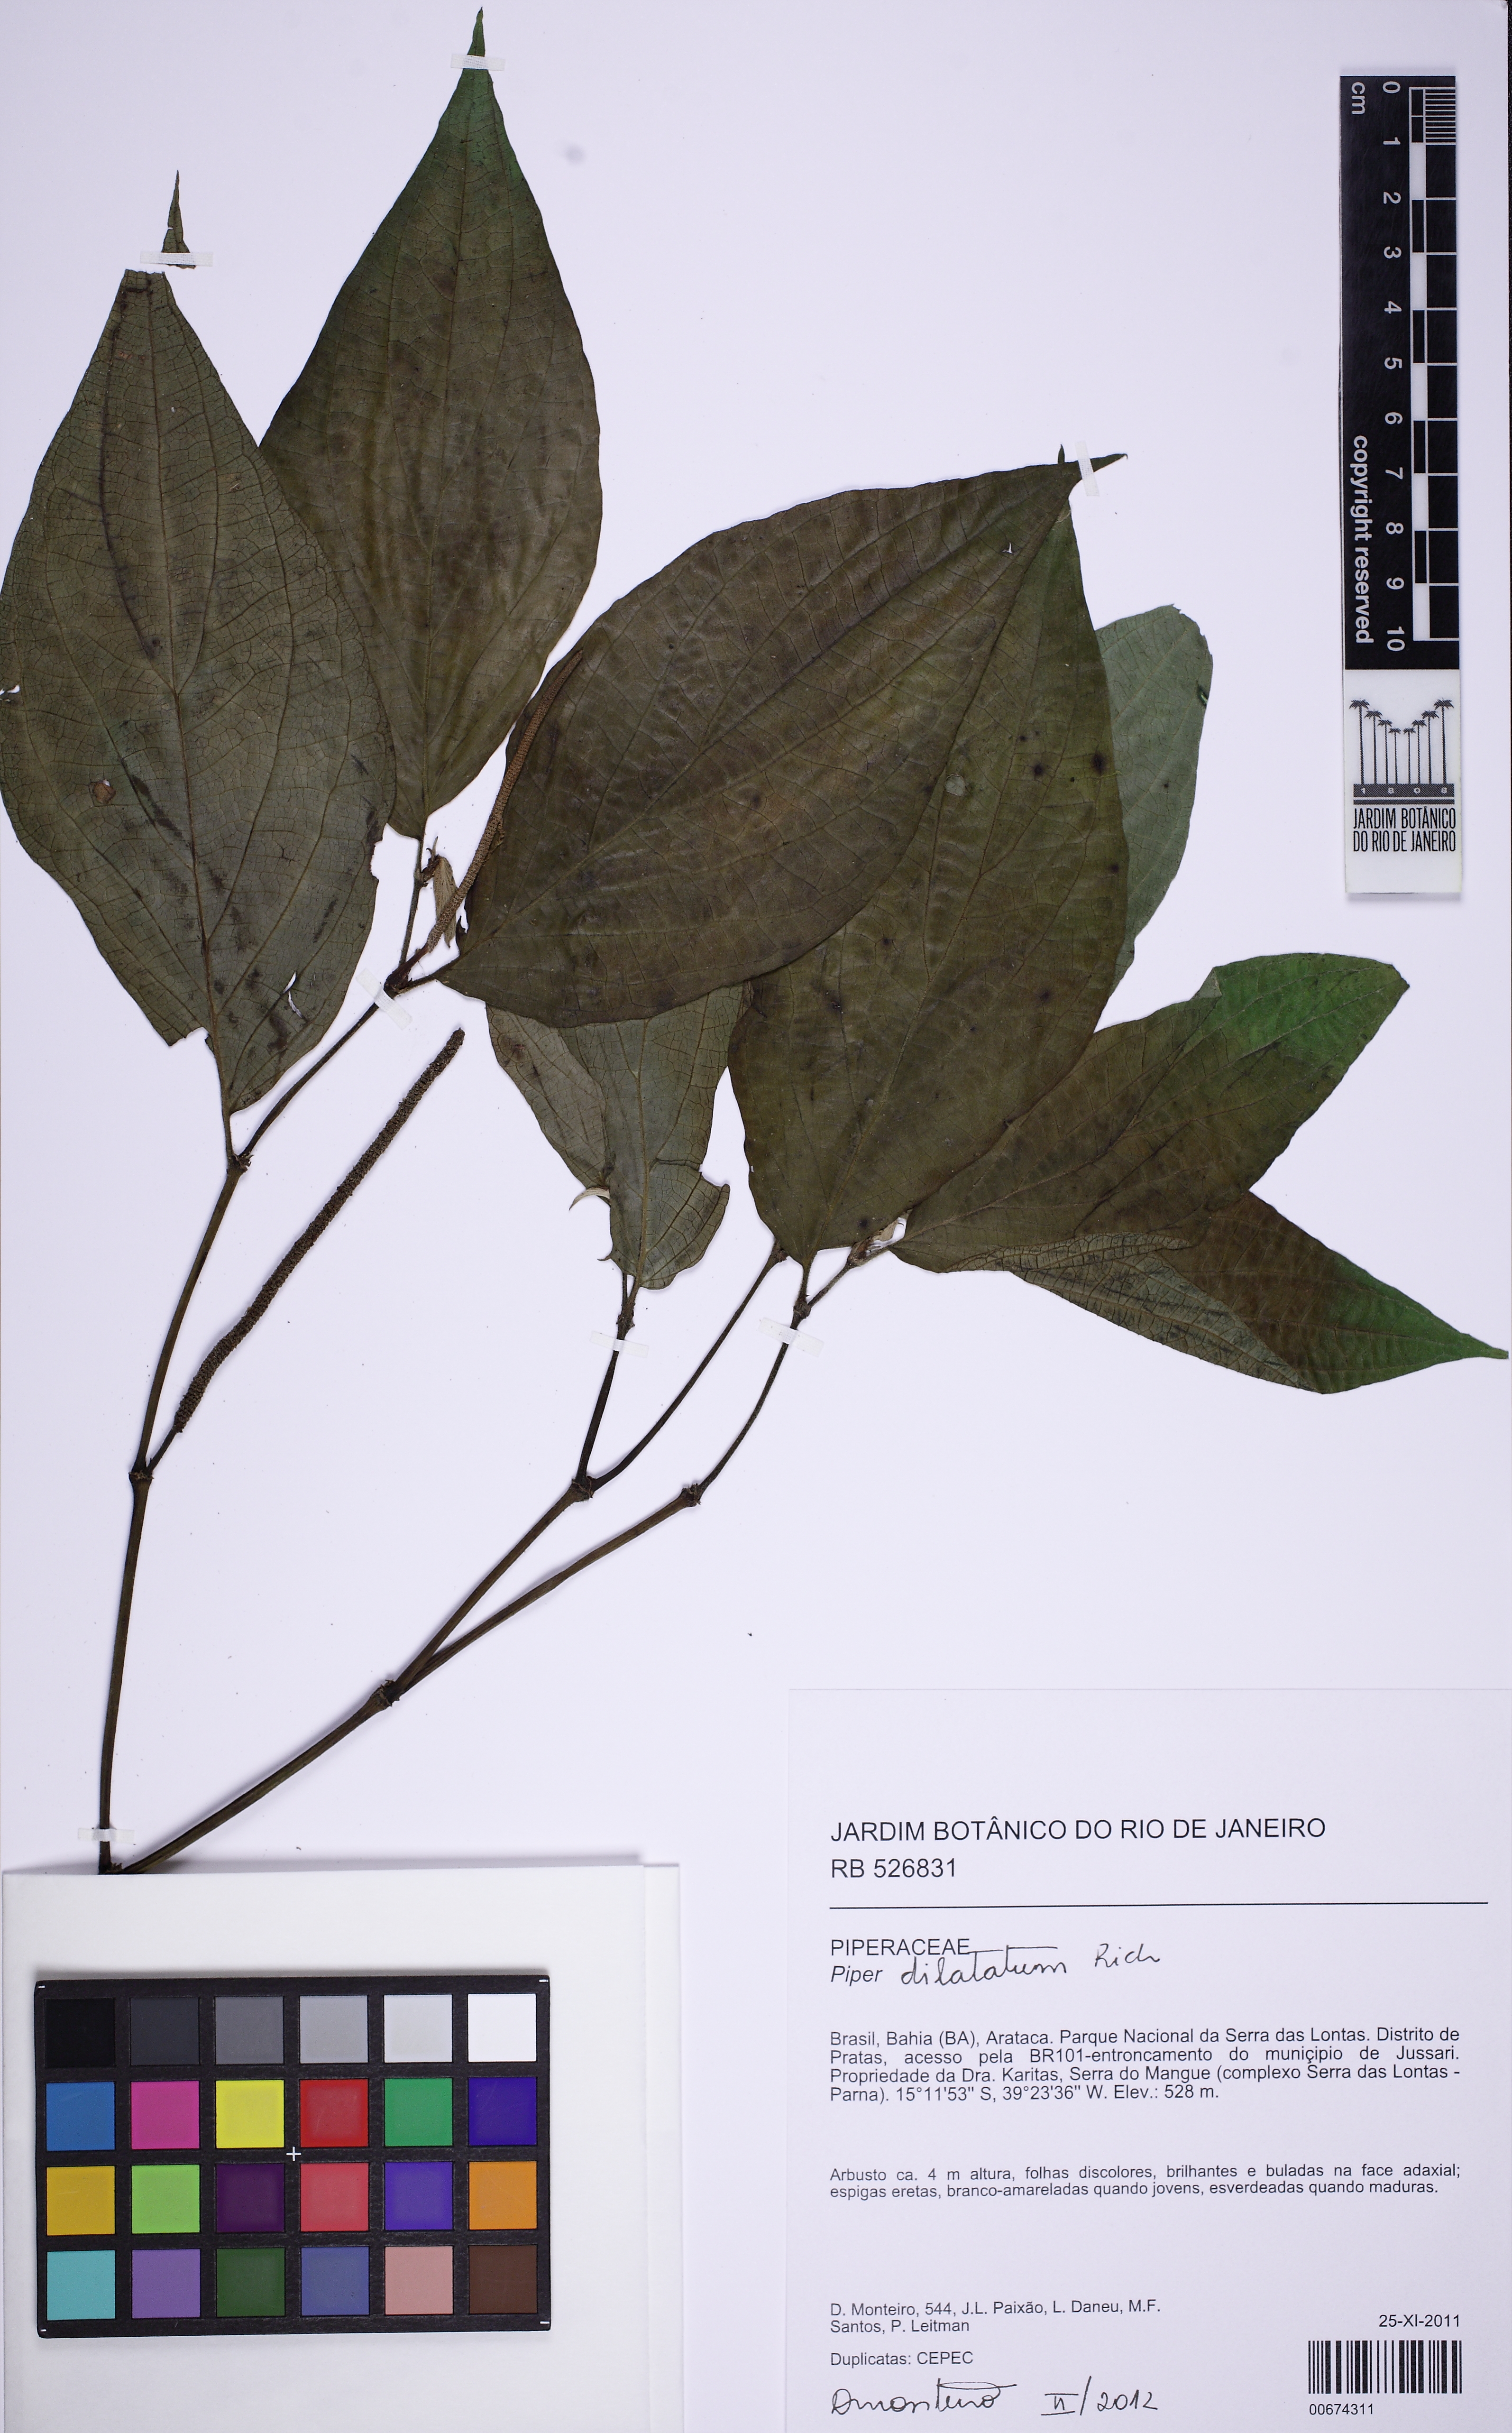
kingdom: Plantae
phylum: Tracheophyta
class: Magnoliopsida
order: Piperales
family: Piperaceae
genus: Piper
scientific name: Piper dilatatum
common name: Higuillo
